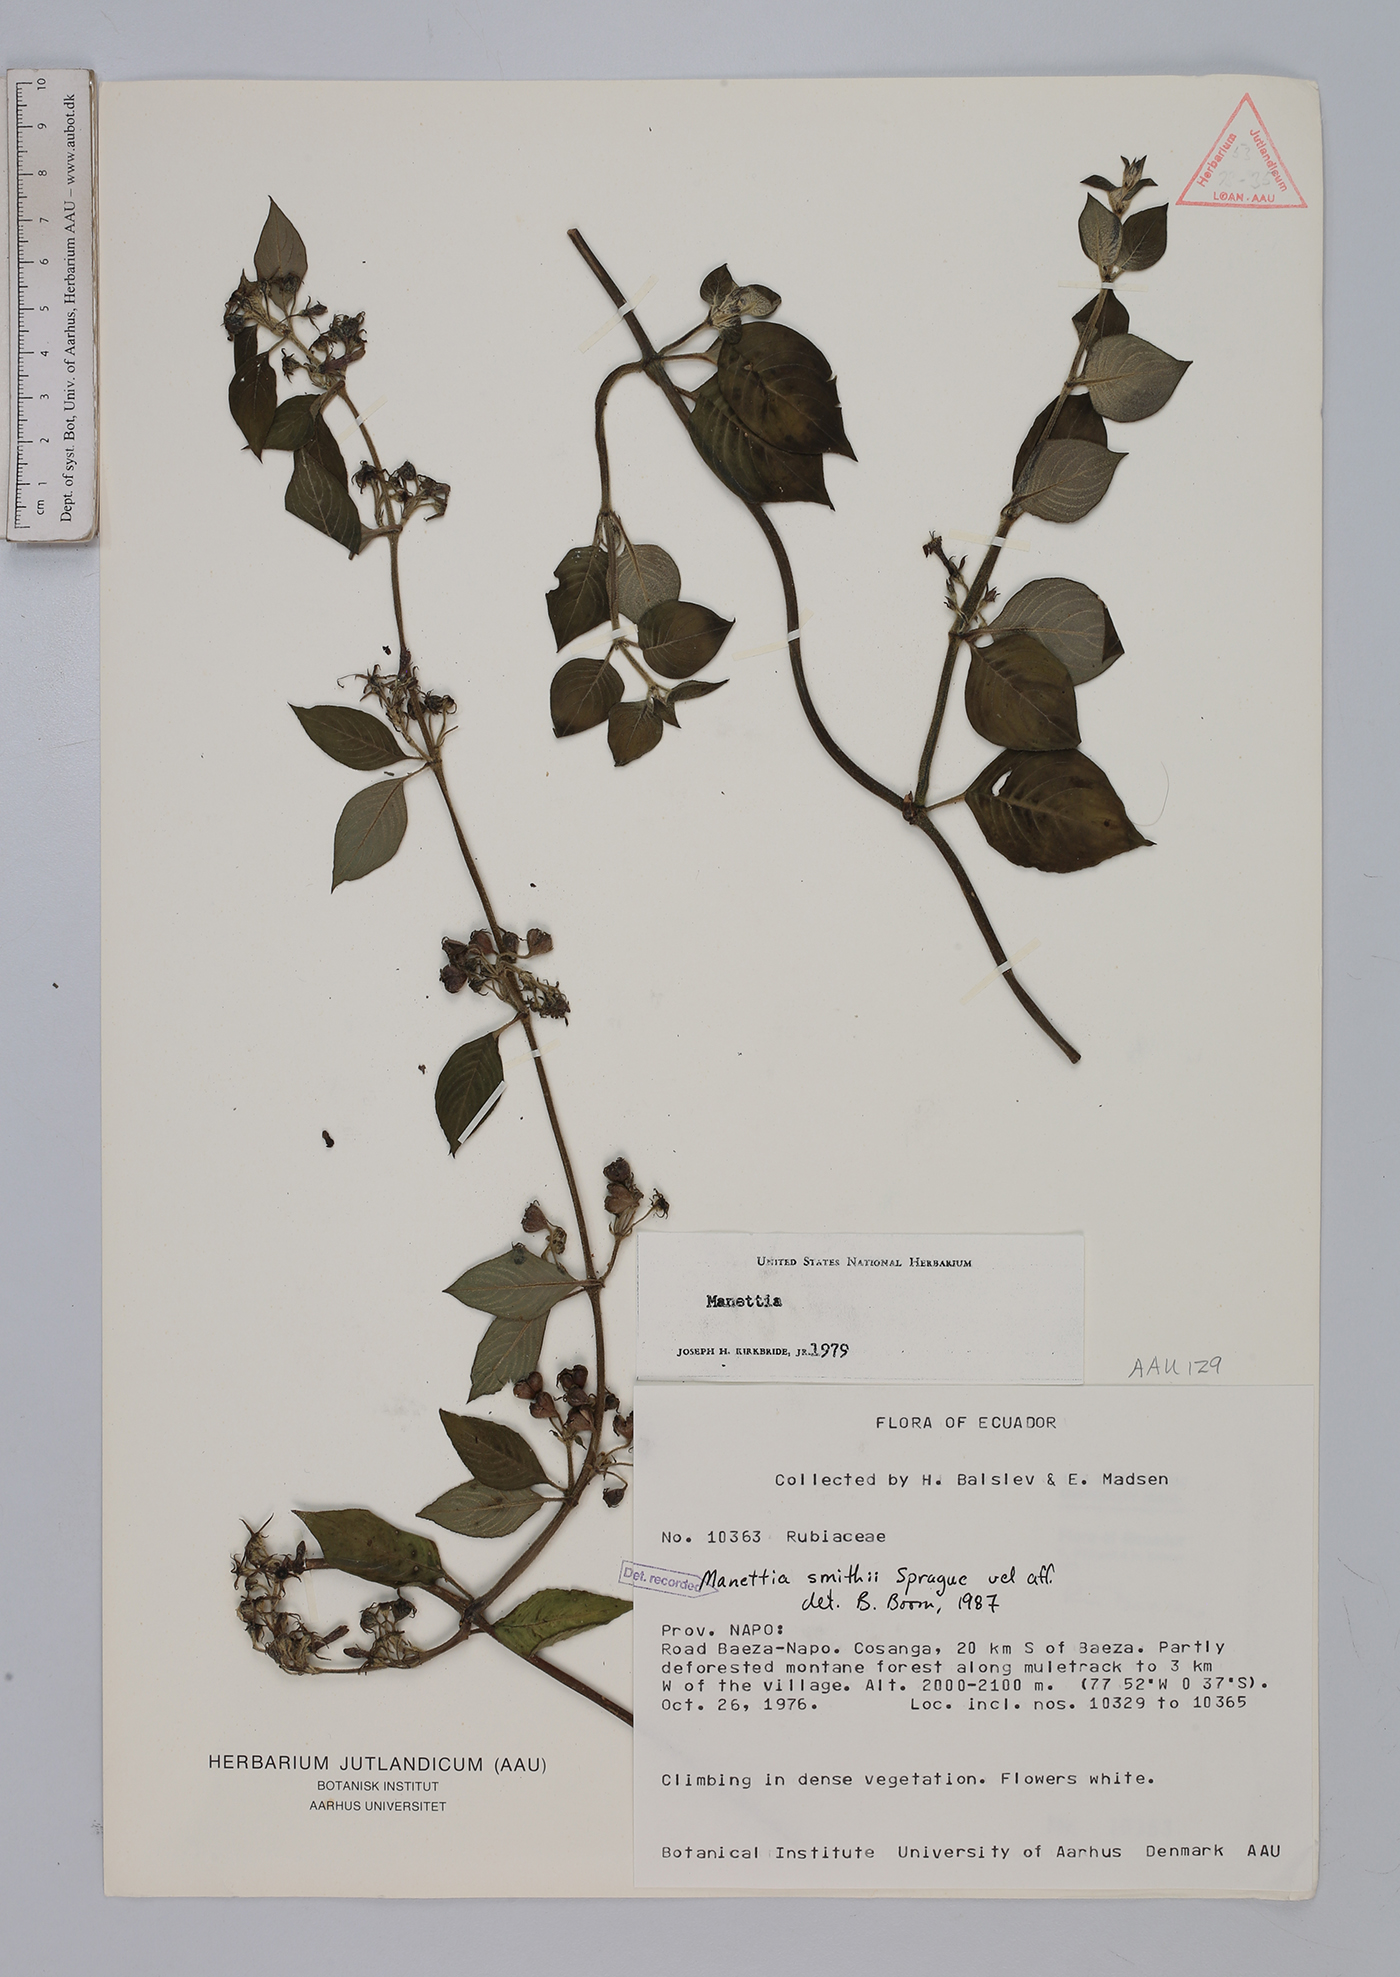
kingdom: Plantae
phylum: Tracheophyta
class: Magnoliopsida
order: Gentianales
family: Rubiaceae
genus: Manettia
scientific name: Manettia smithii
